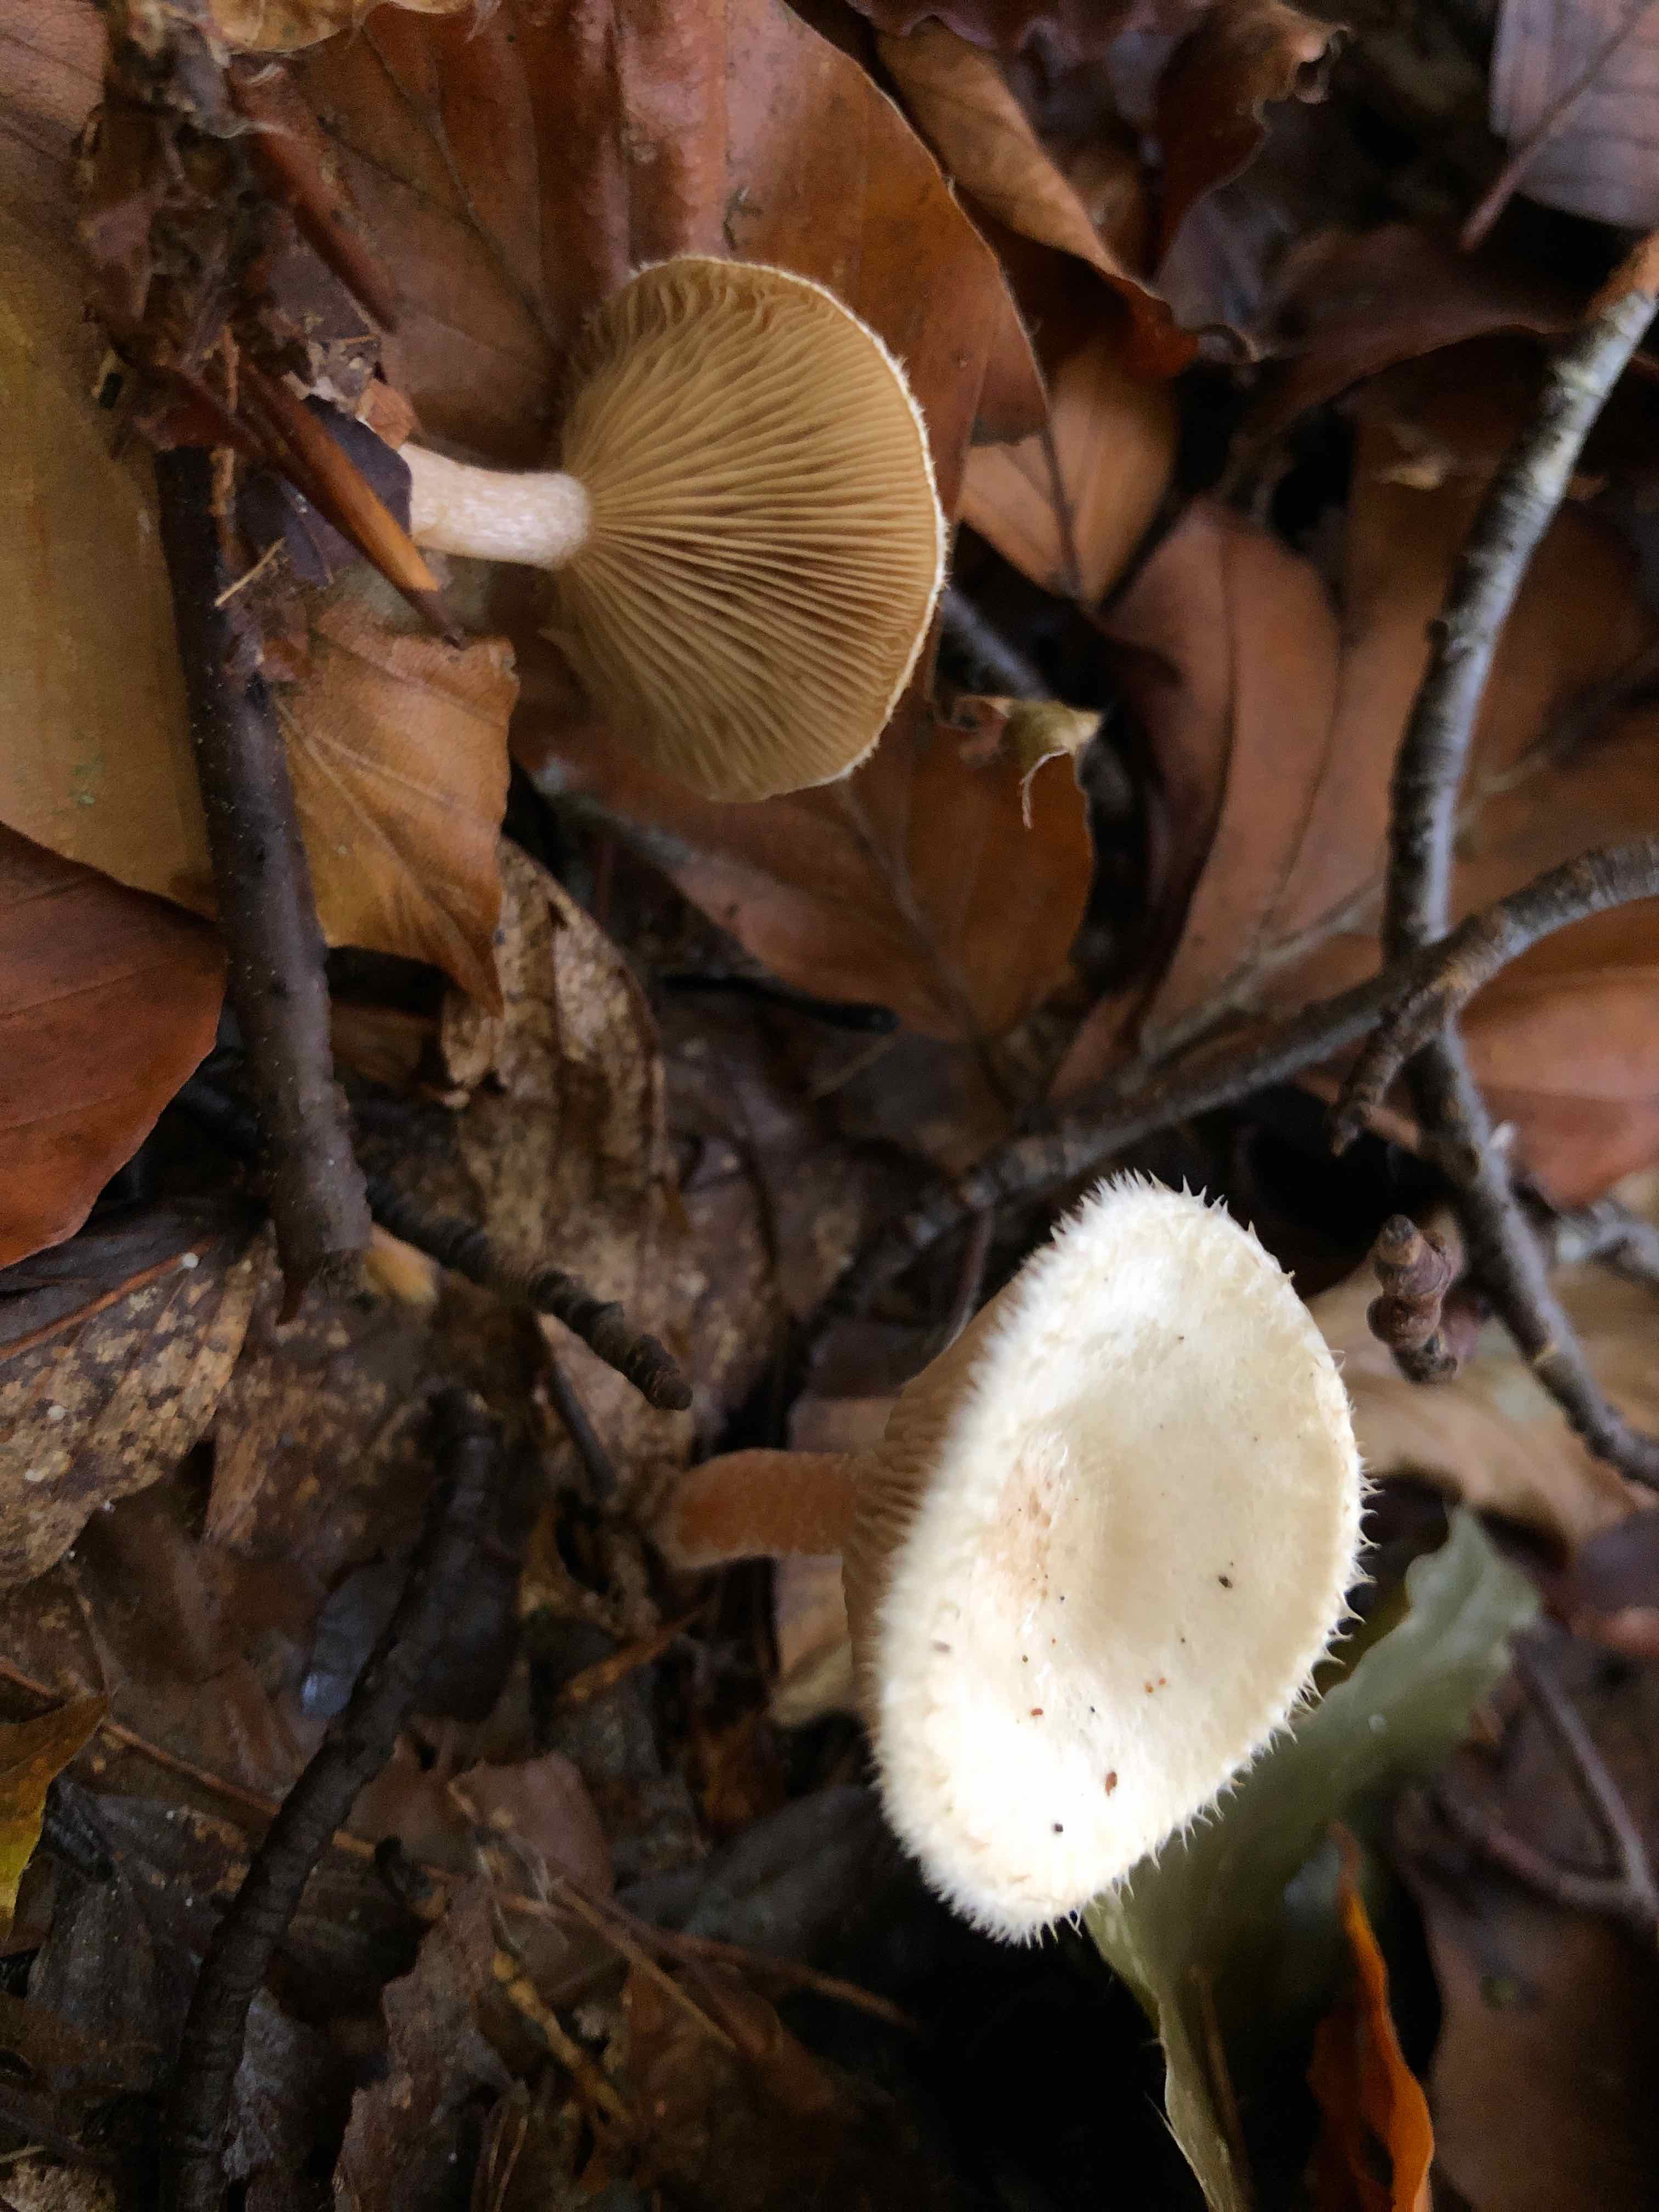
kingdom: Fungi
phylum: Basidiomycota
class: Agaricomycetes
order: Agaricales
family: Tricholomataceae
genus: Ripartites
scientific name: Ripartites tricholoma
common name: almindelig skæghat
